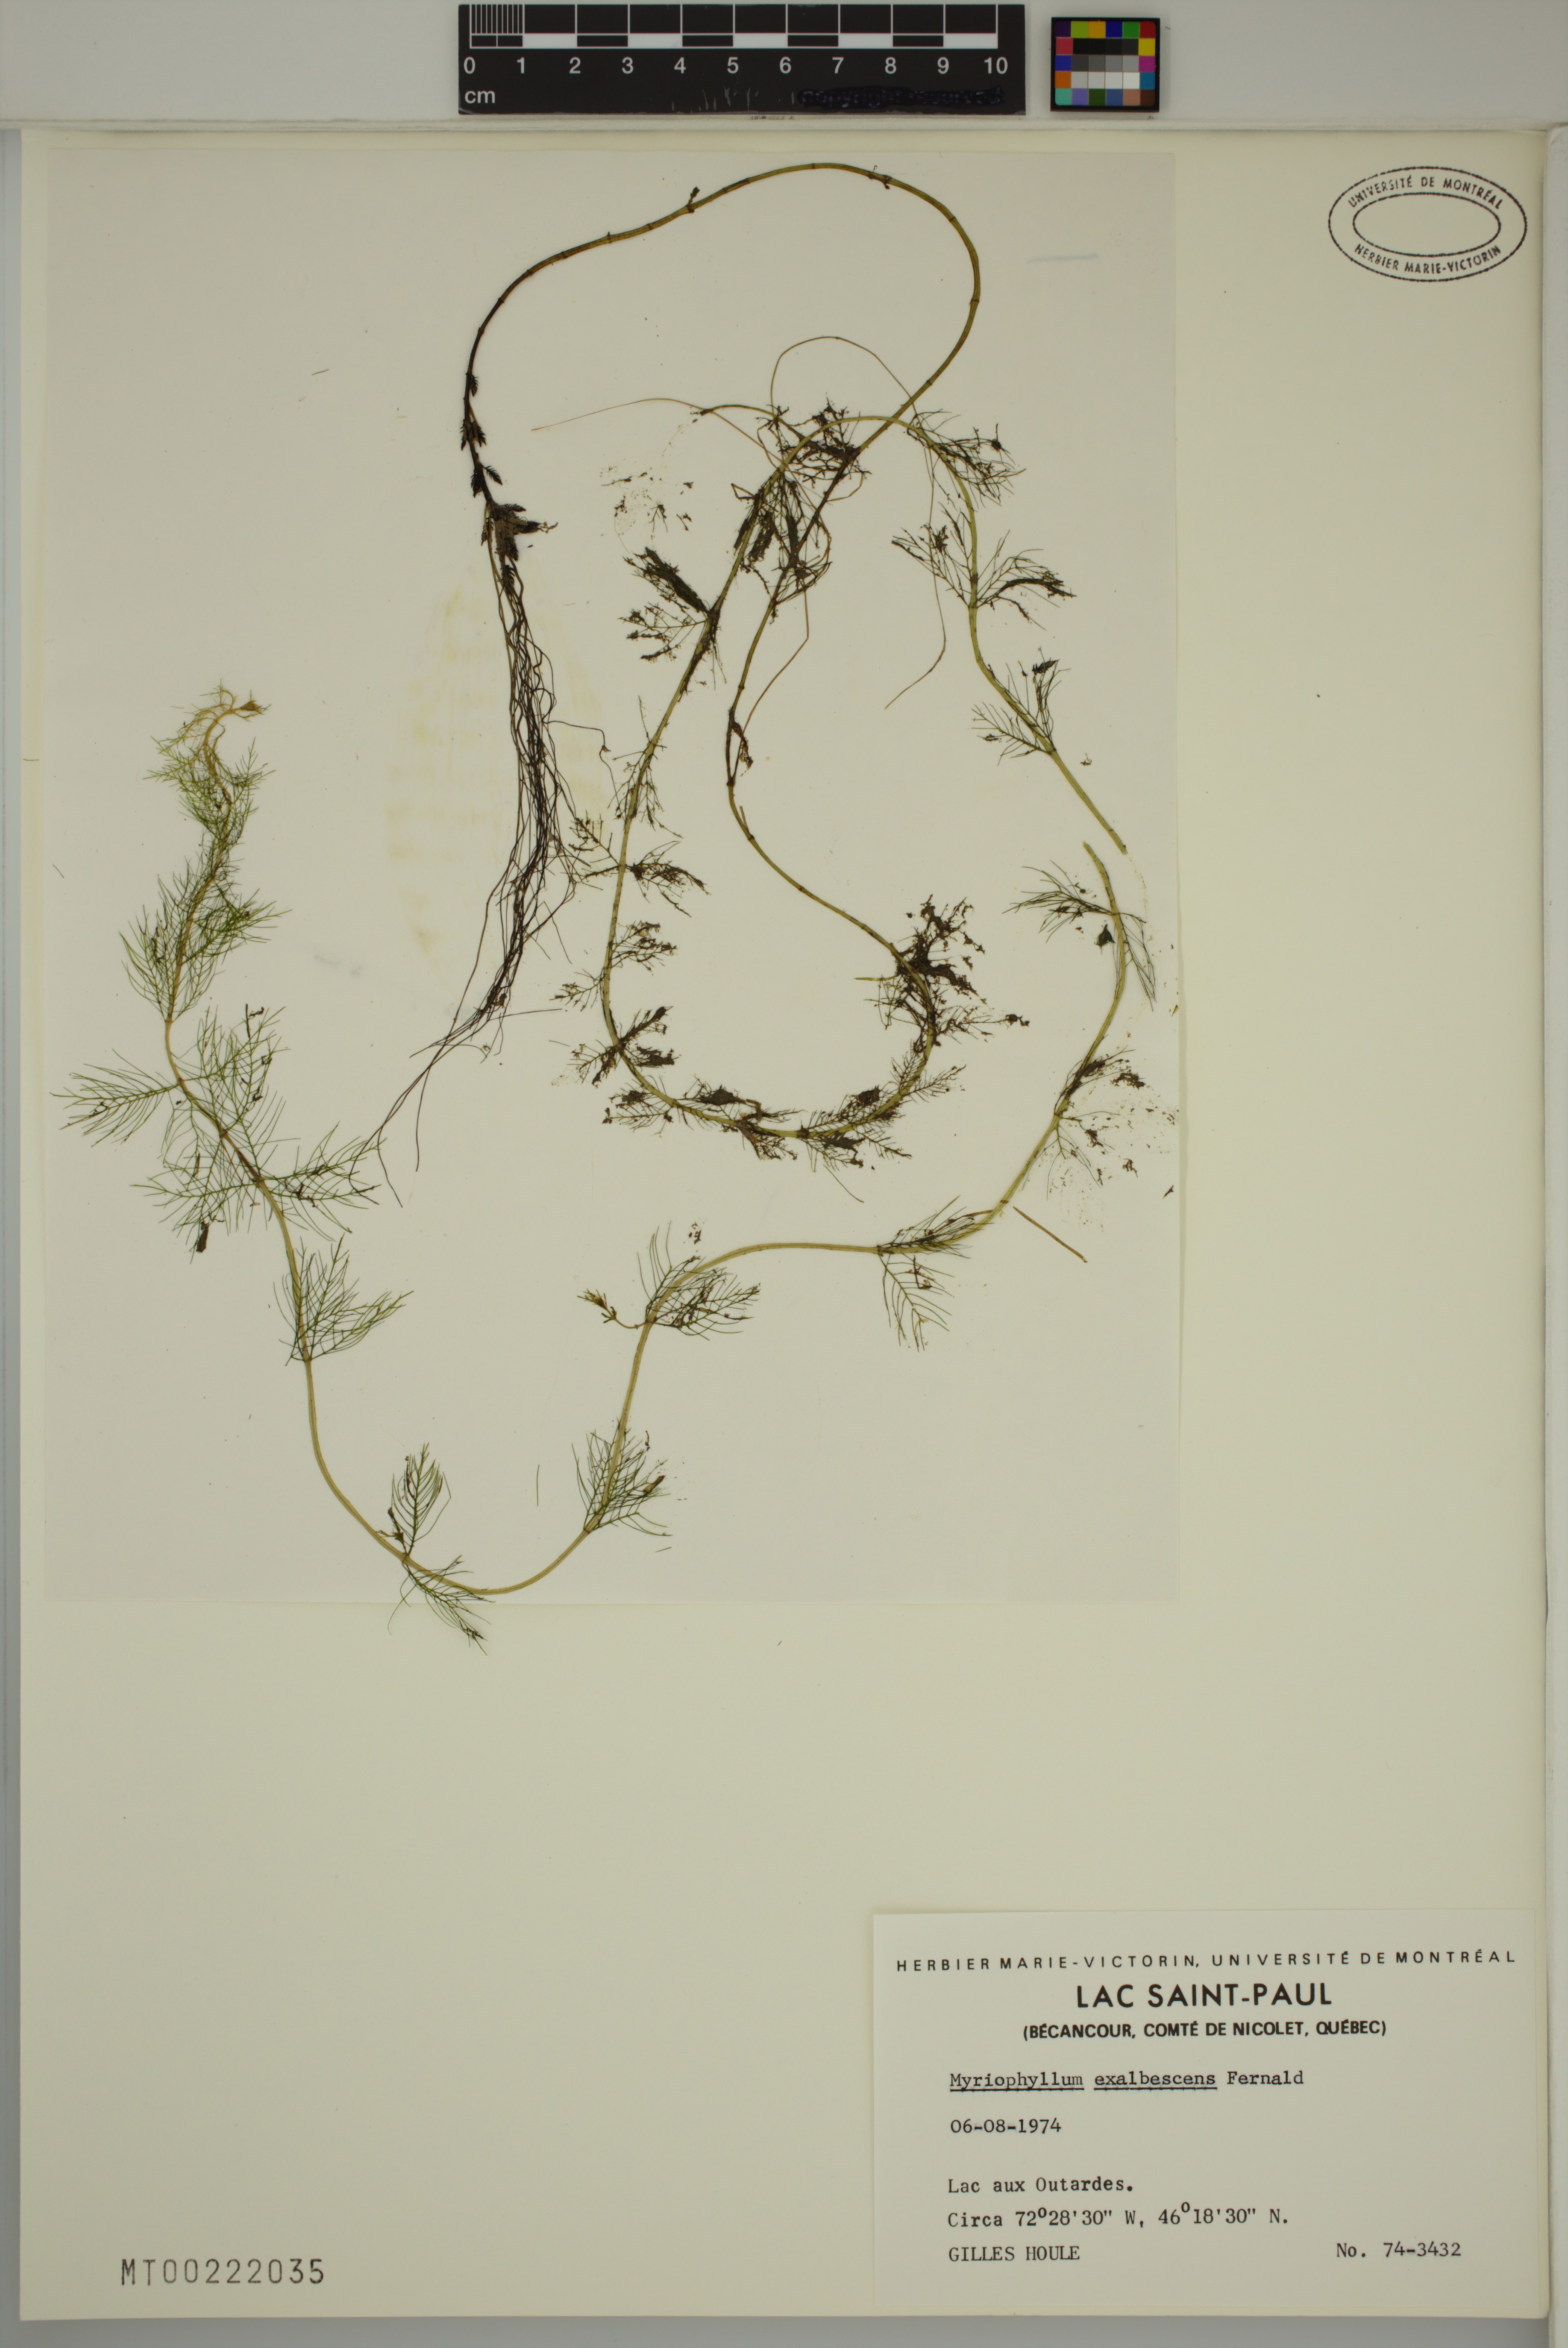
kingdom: Plantae
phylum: Tracheophyta
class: Magnoliopsida
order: Saxifragales
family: Haloragaceae
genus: Myriophyllum
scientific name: Myriophyllum sibiricum
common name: Siberian water-milfoil
